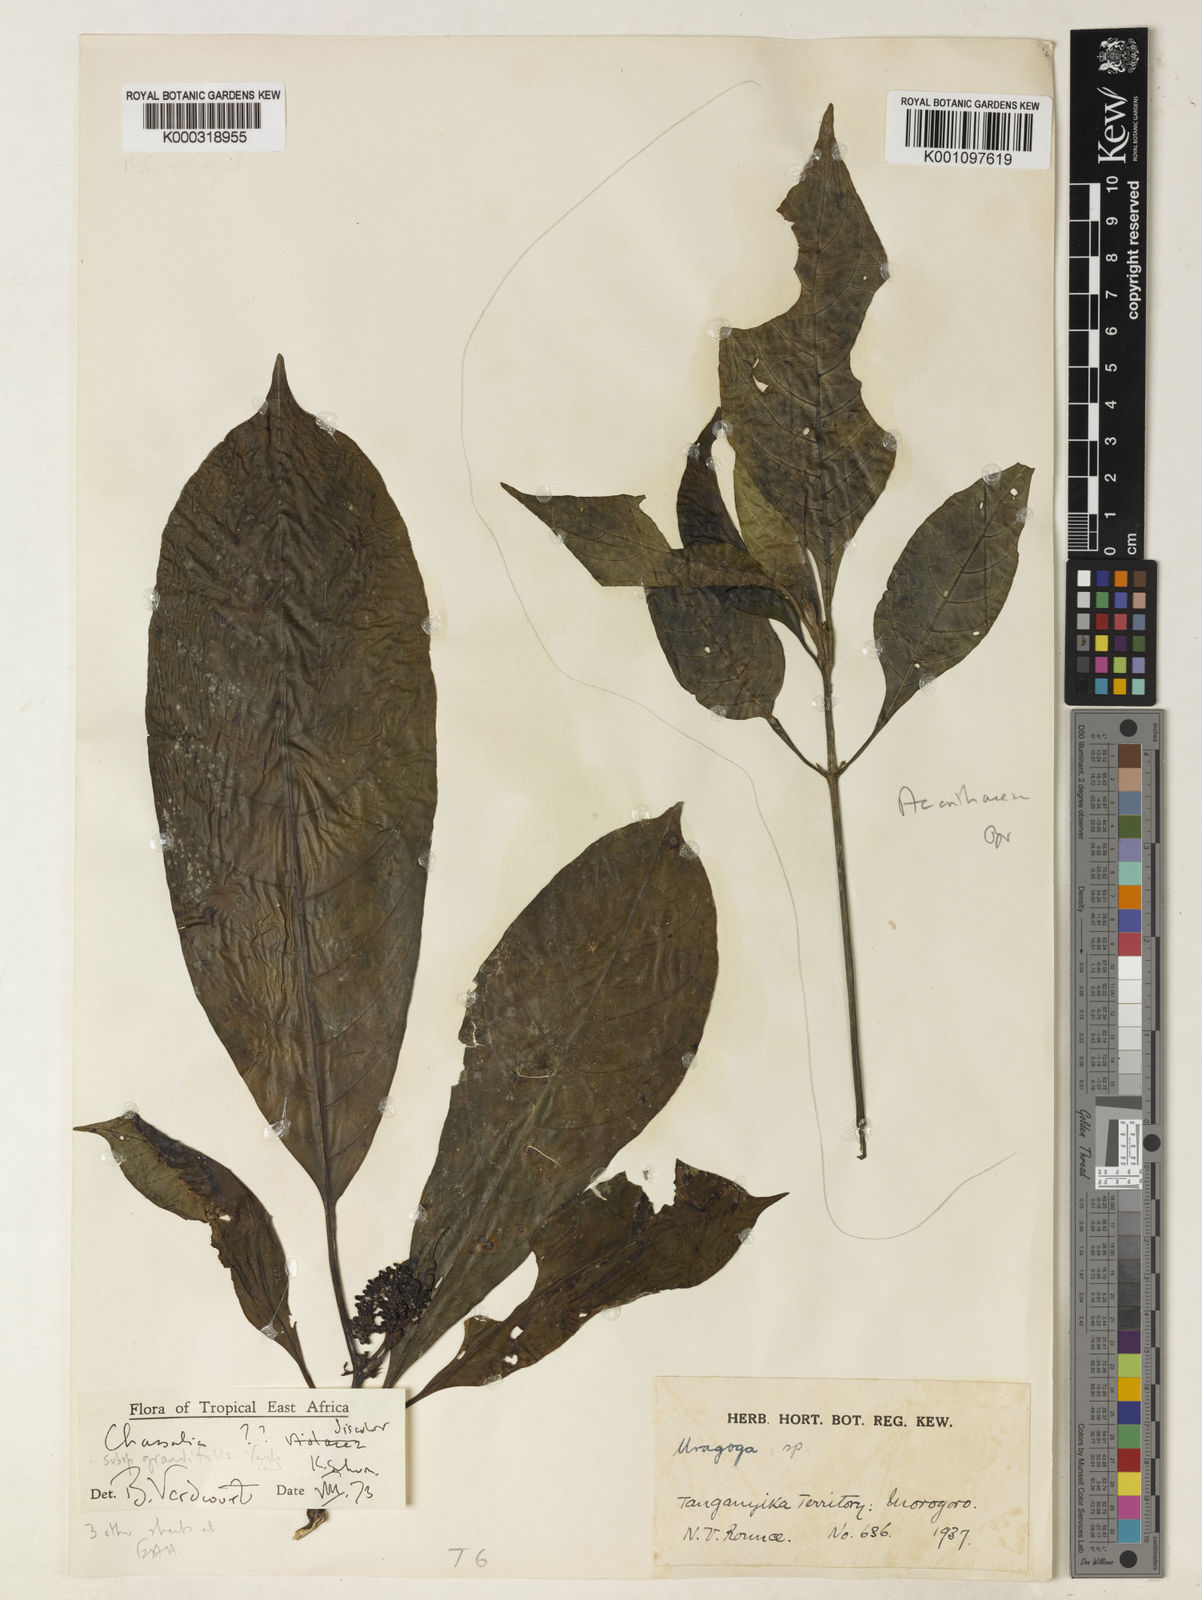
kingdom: Plantae
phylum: Tracheophyta
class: Magnoliopsida
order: Gentianales
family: Rubiaceae
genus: Chassalia
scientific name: Chassalia discolor
